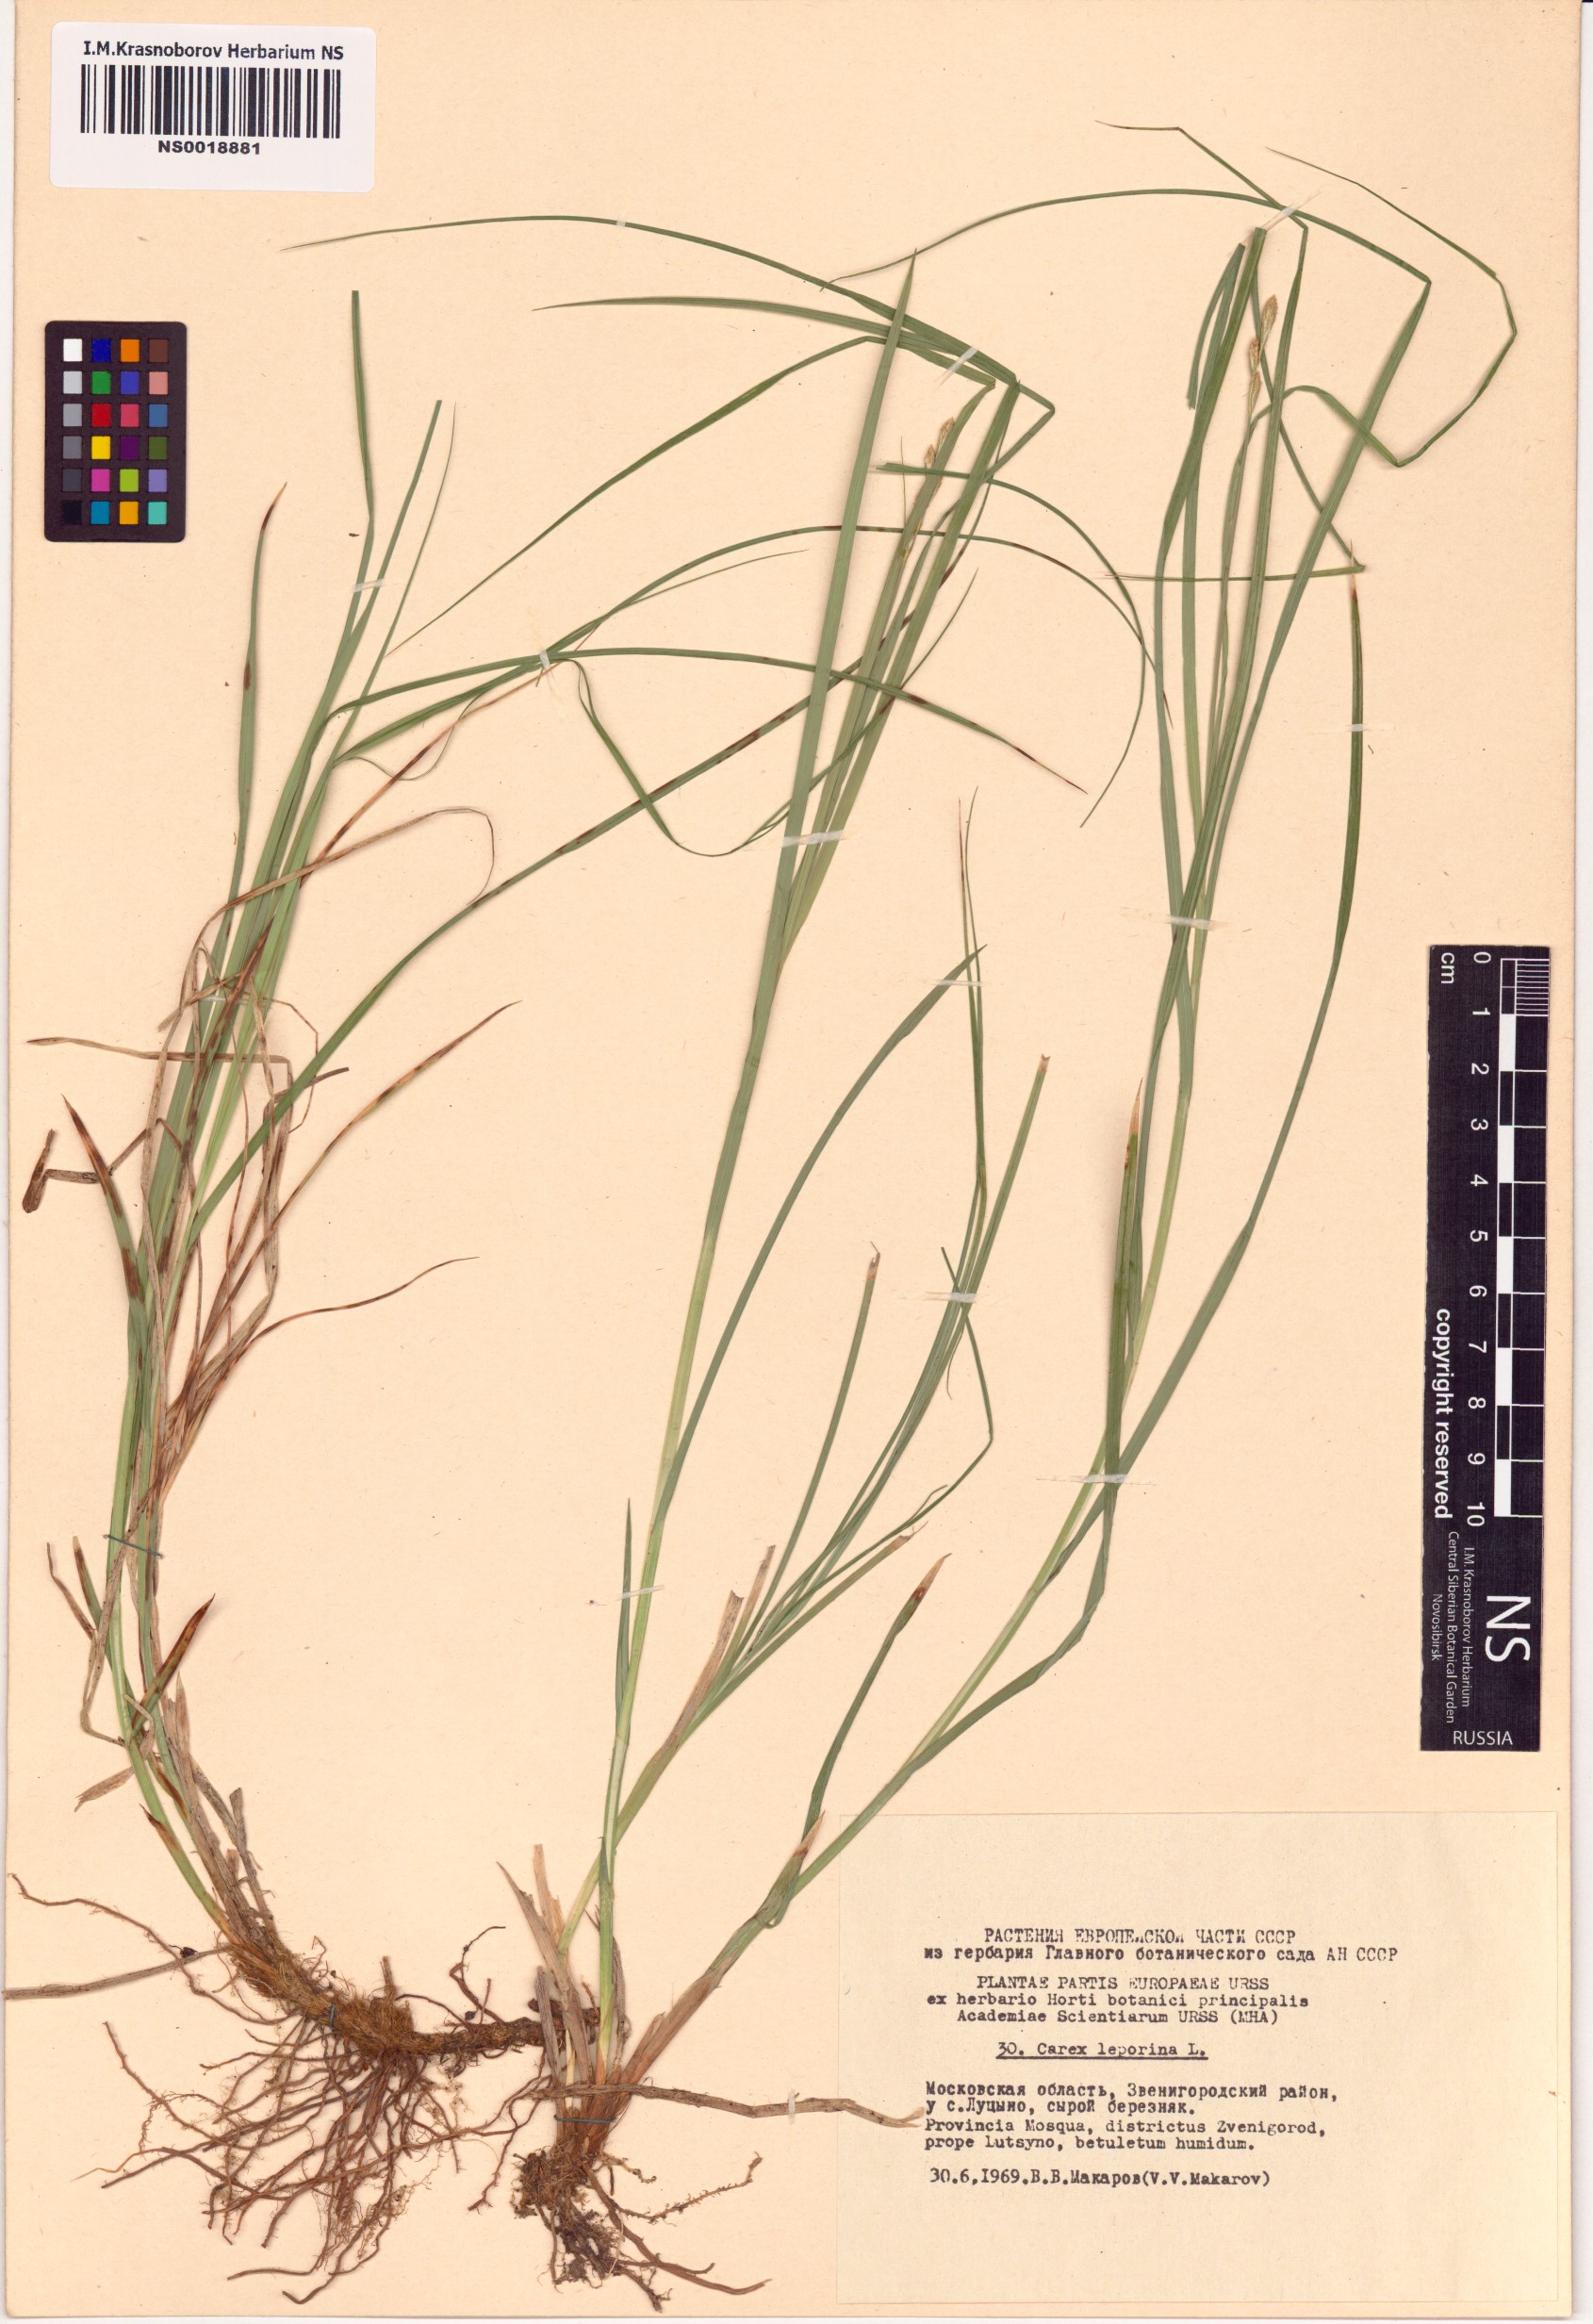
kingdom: Plantae
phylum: Tracheophyta
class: Liliopsida
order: Poales
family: Cyperaceae
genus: Carex
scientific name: Carex leporina
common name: Oval sedge
